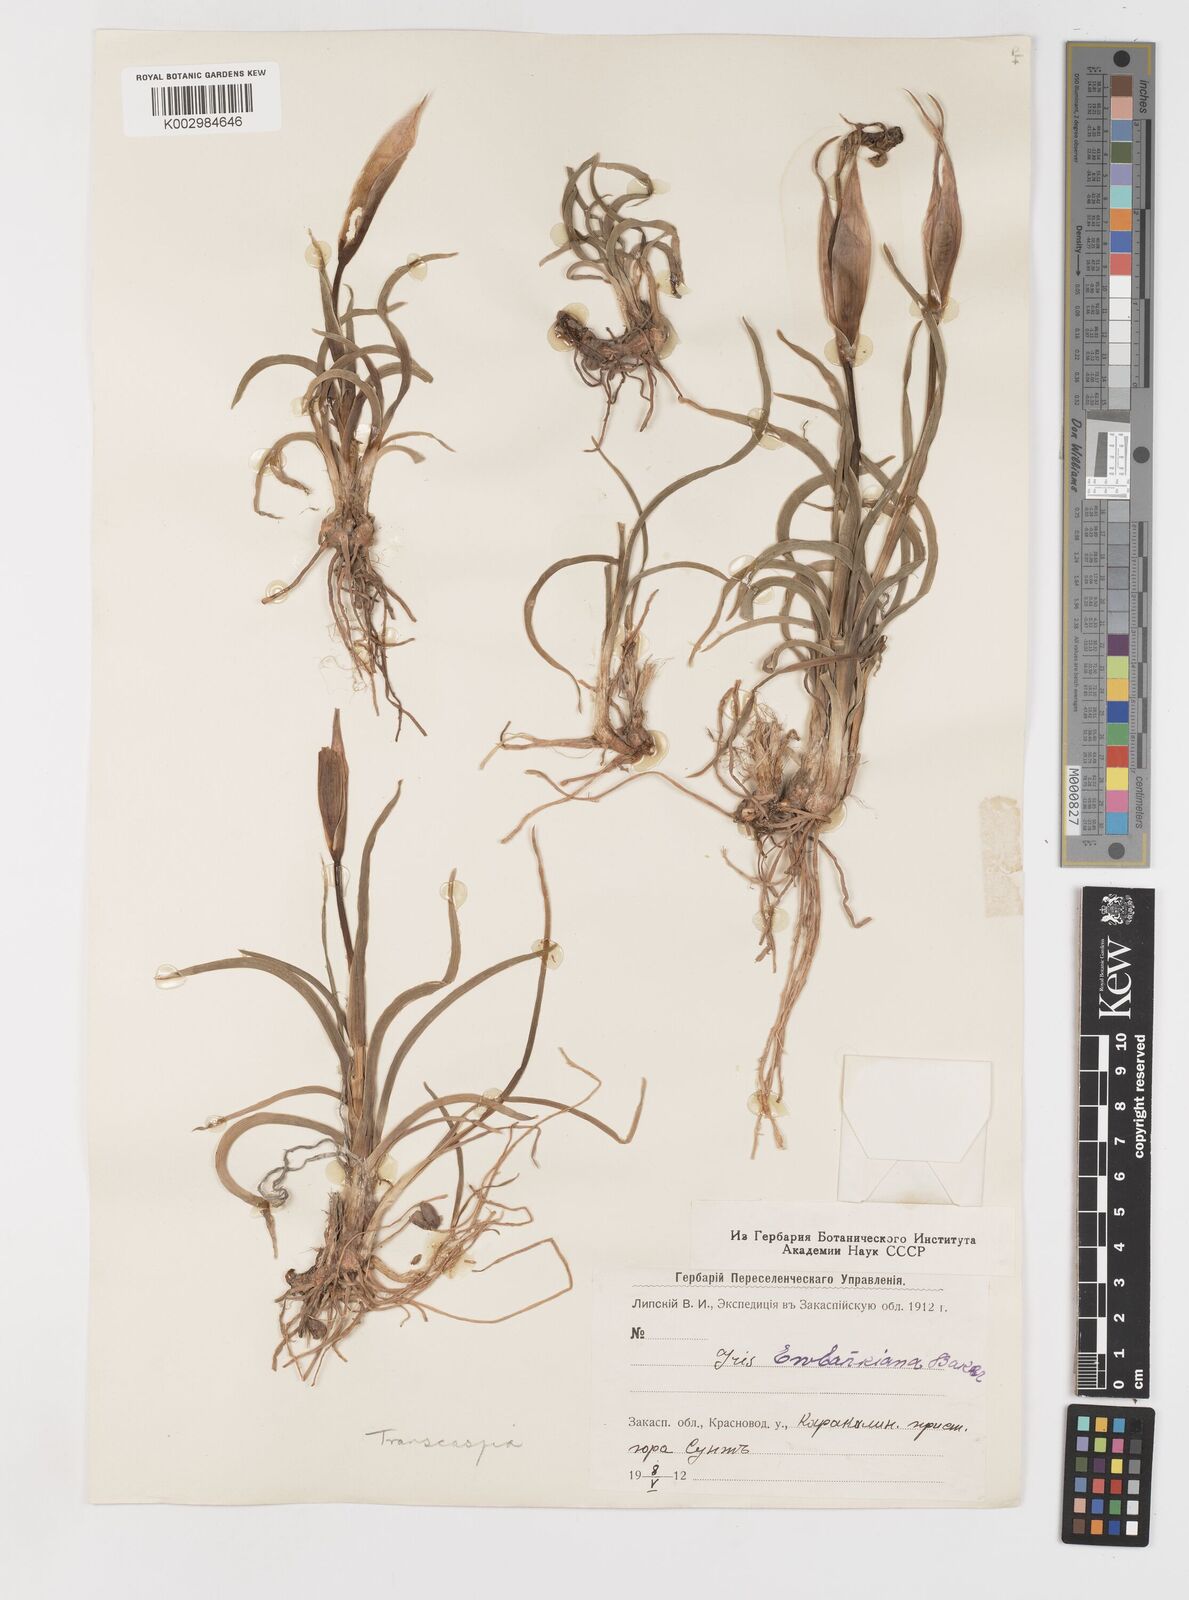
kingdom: Plantae
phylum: Tracheophyta
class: Liliopsida
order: Asparagales
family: Iridaceae
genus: Iris
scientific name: Iris acutiloba
